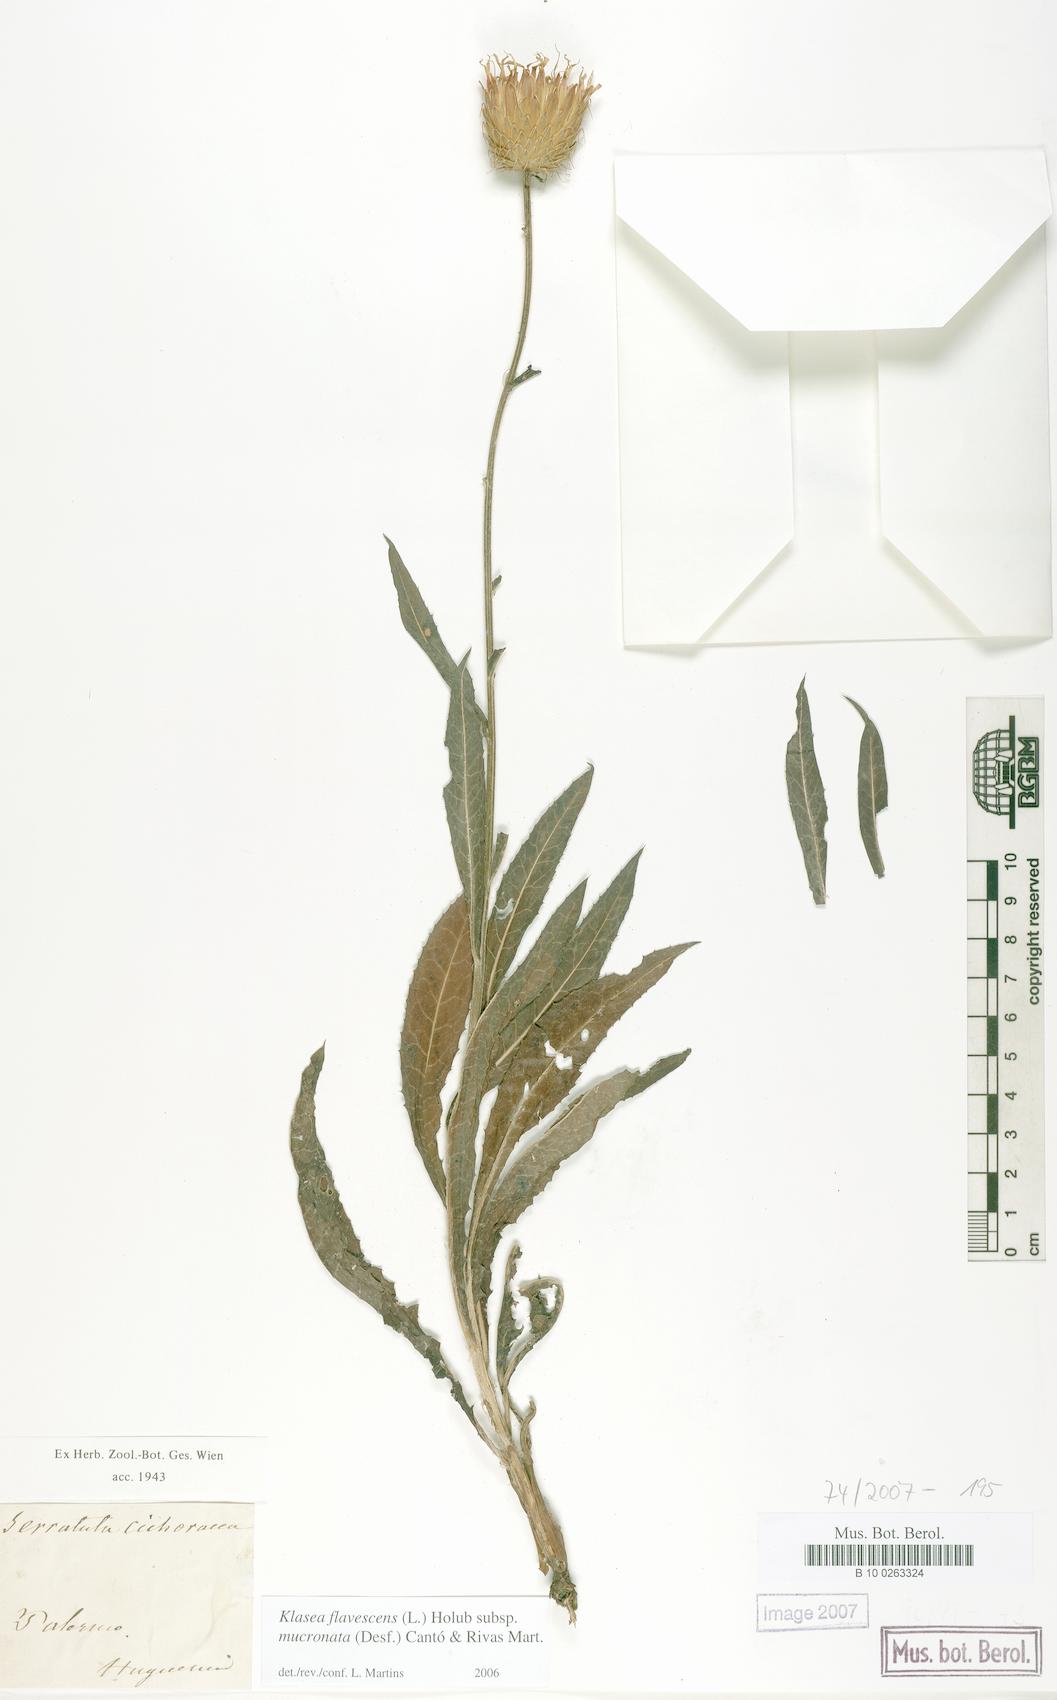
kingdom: Plantae
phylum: Tracheophyta
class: Magnoliopsida
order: Asterales
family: Asteraceae
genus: Klasea
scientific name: Klasea flavescens
